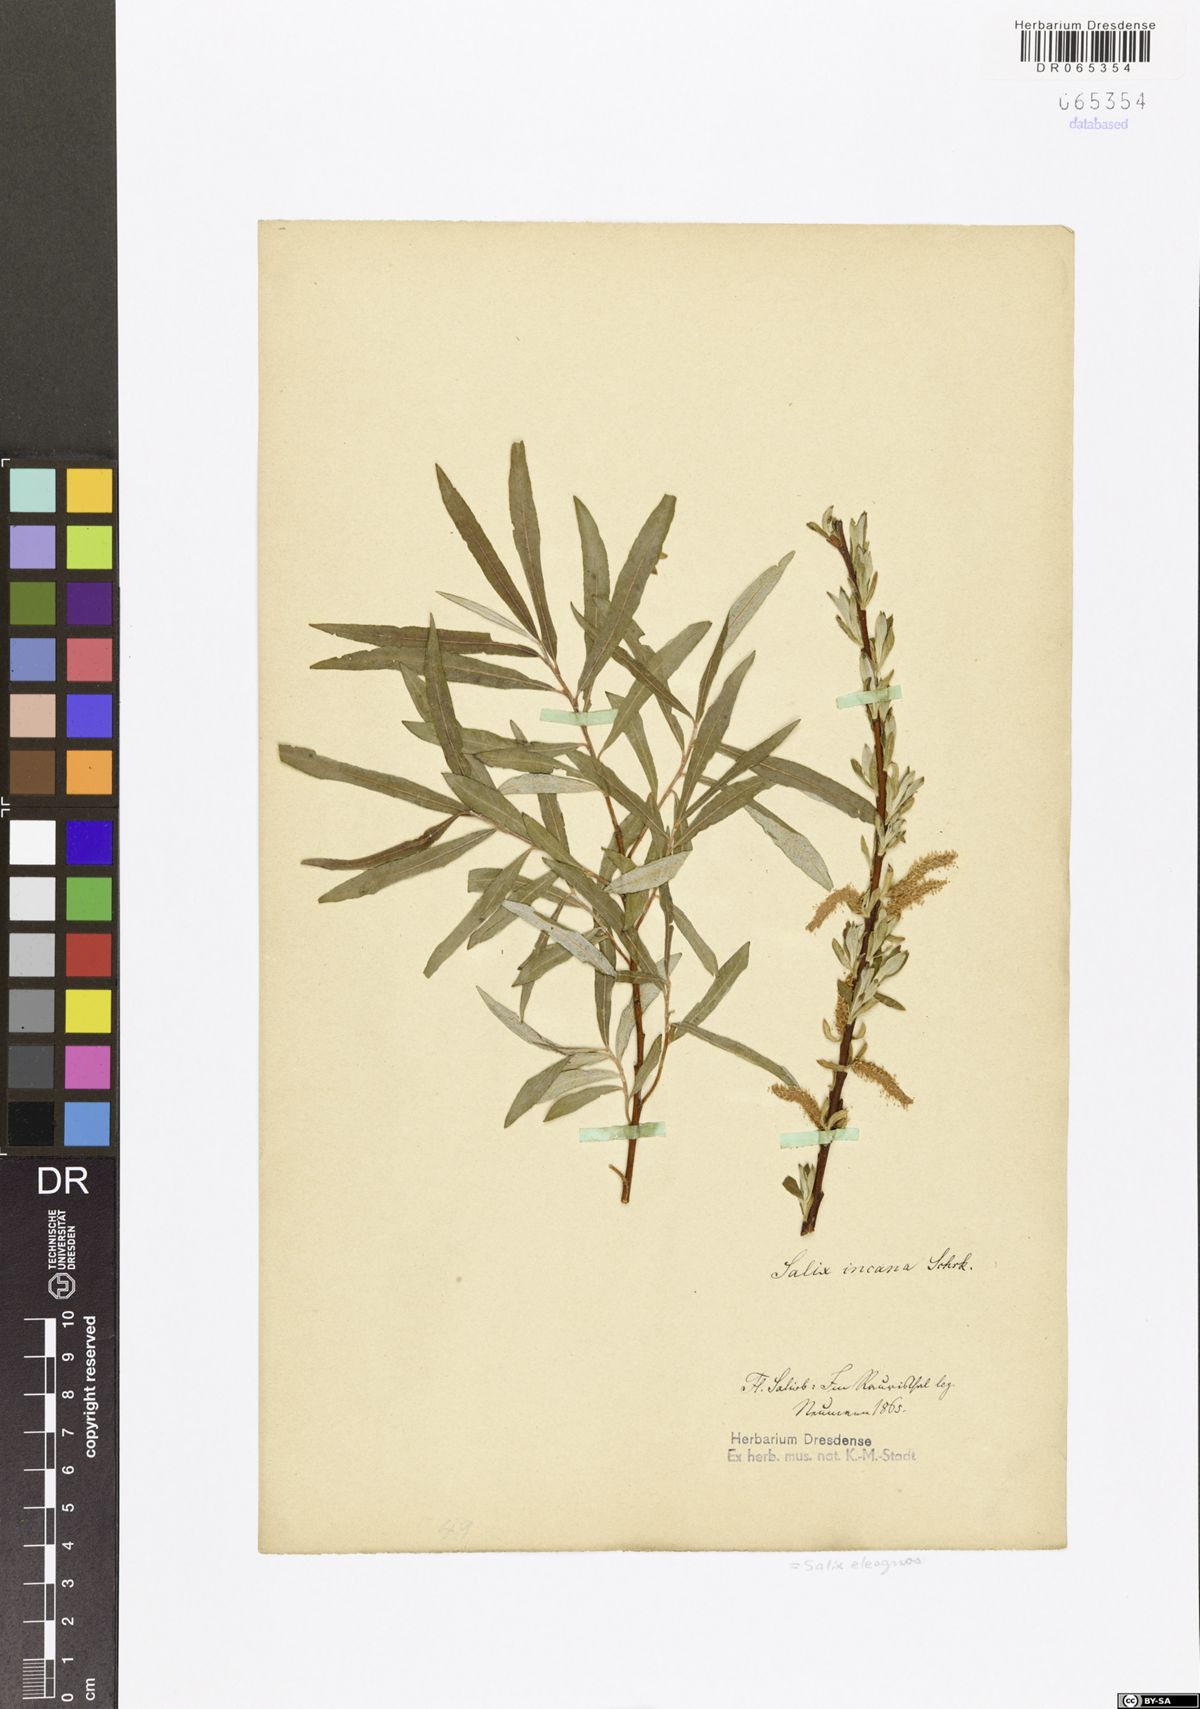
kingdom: Plantae
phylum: Tracheophyta
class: Magnoliopsida
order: Malpighiales
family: Salicaceae
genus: Salix
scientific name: Salix eleagnos
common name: Elaeagnus willow
